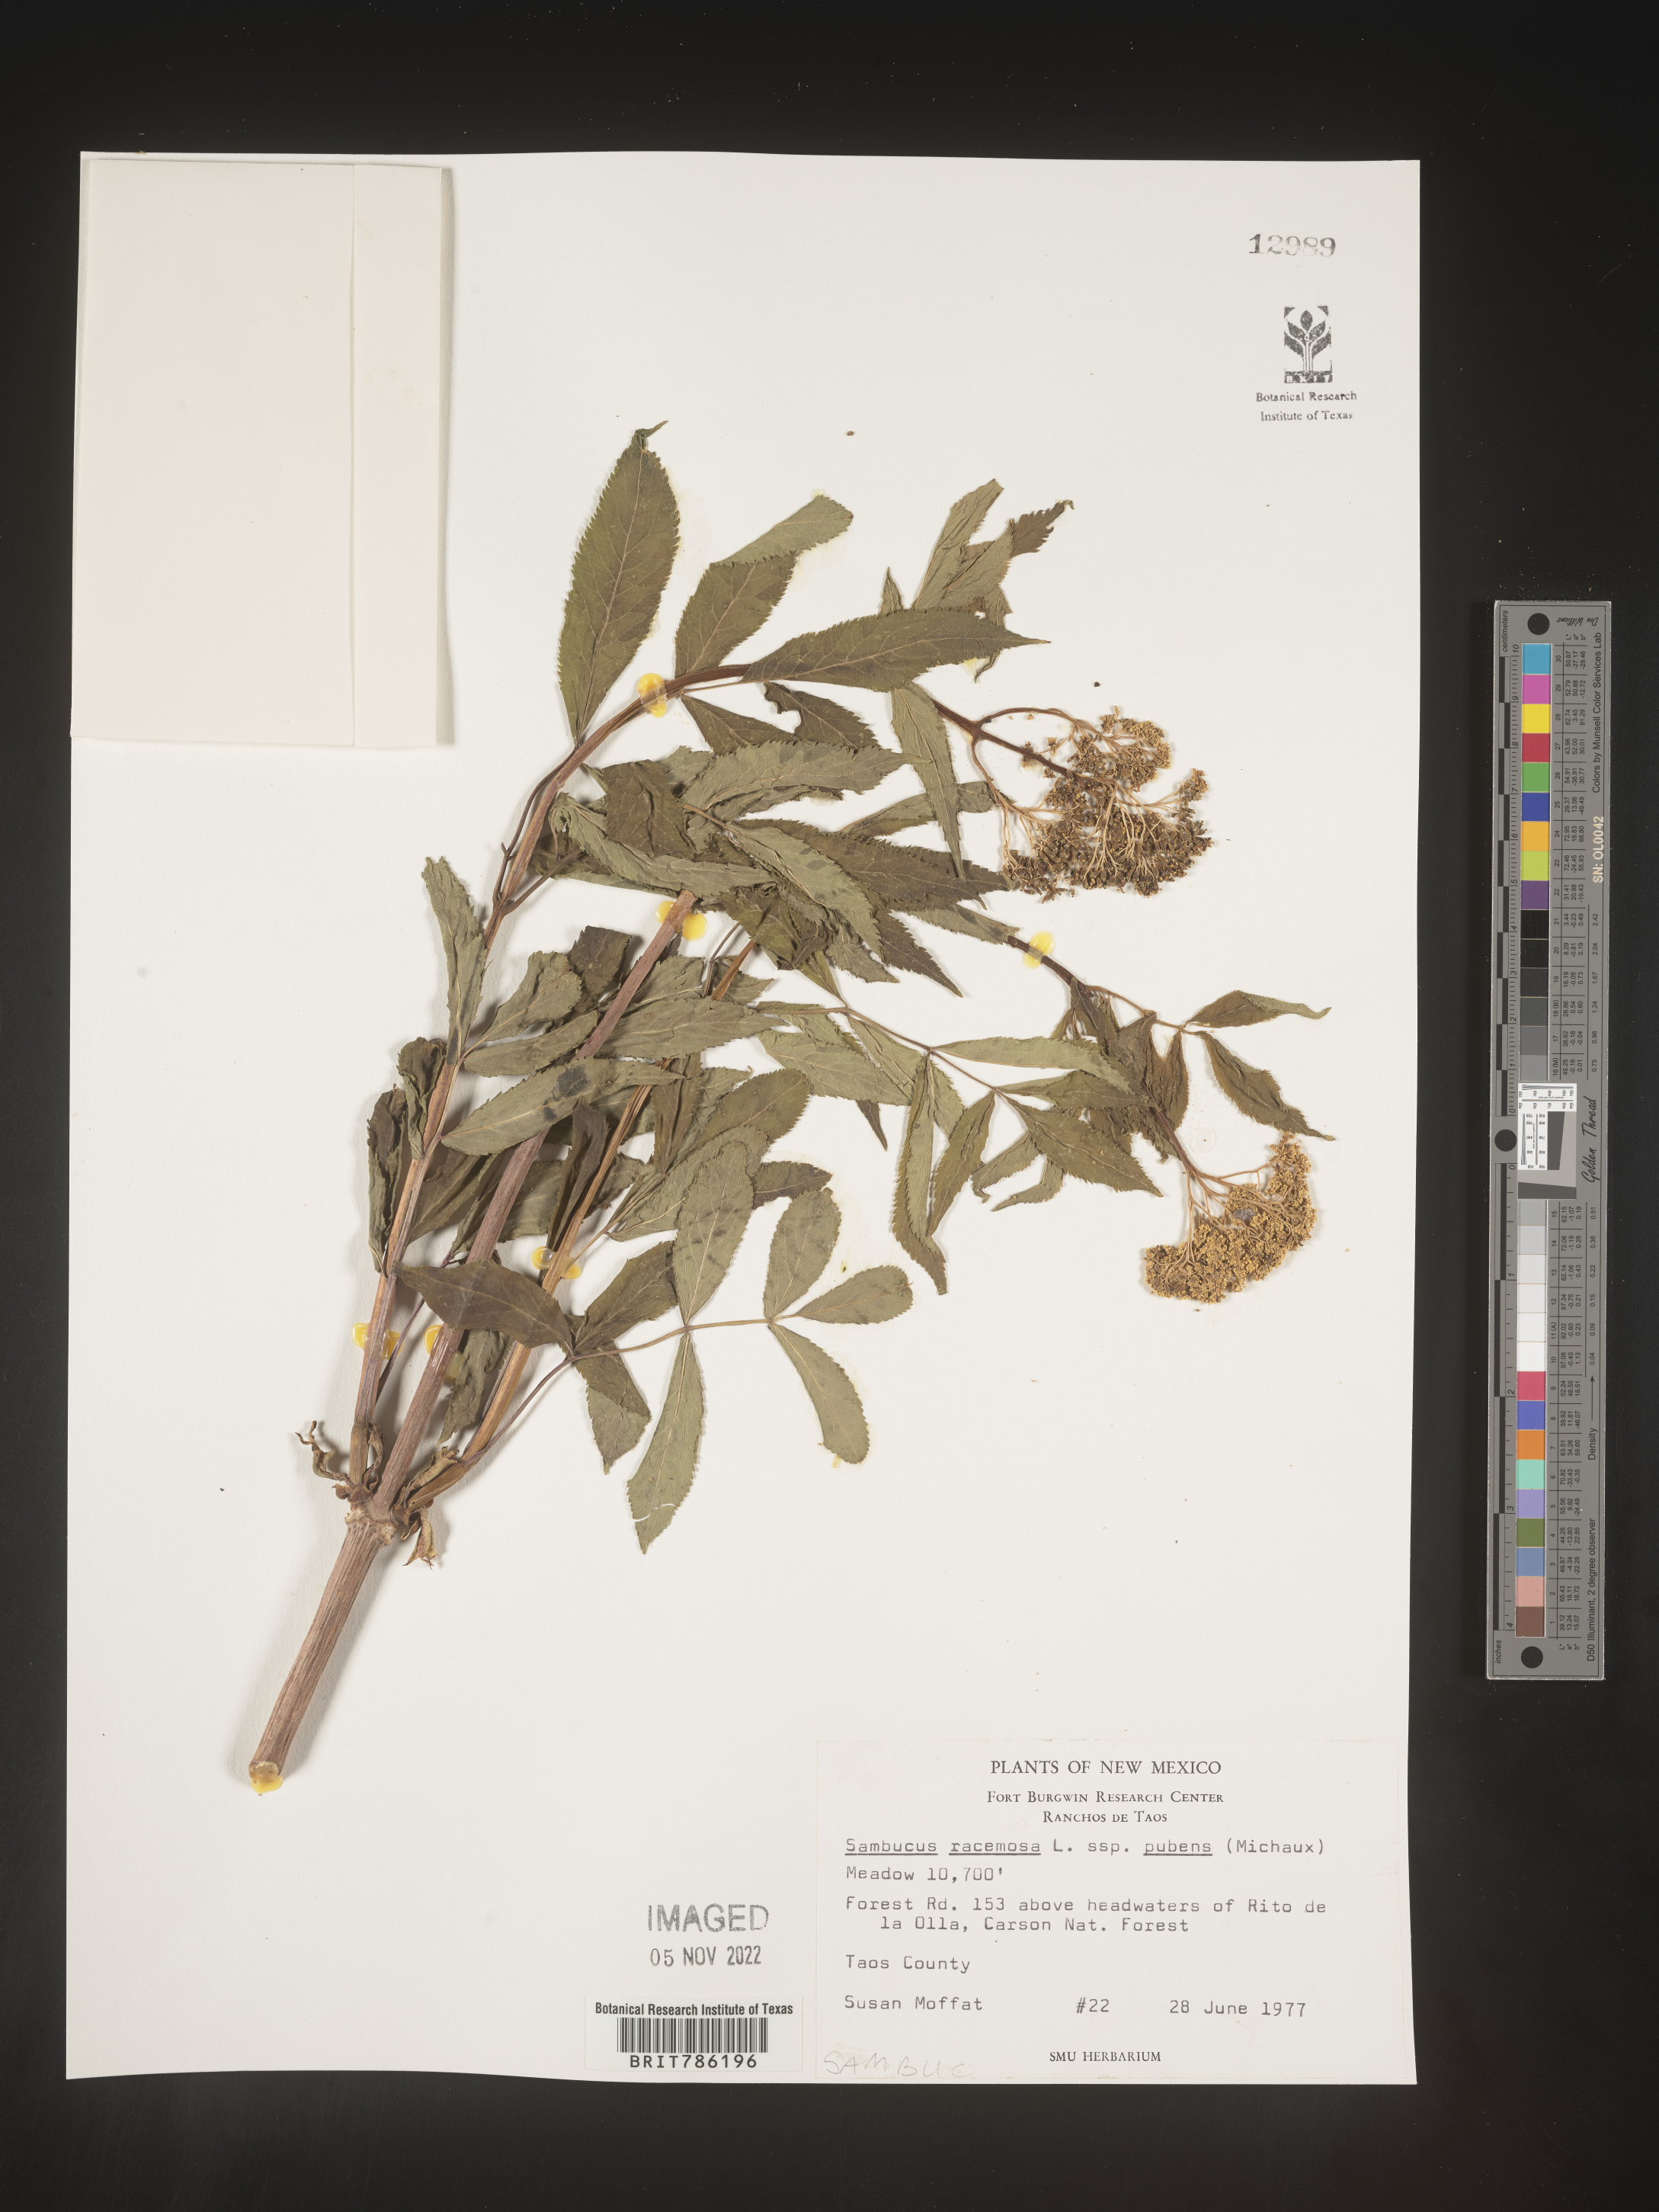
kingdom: Plantae
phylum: Tracheophyta
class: Magnoliopsida
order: Dipsacales
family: Viburnaceae
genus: Sambucus
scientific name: Sambucus
